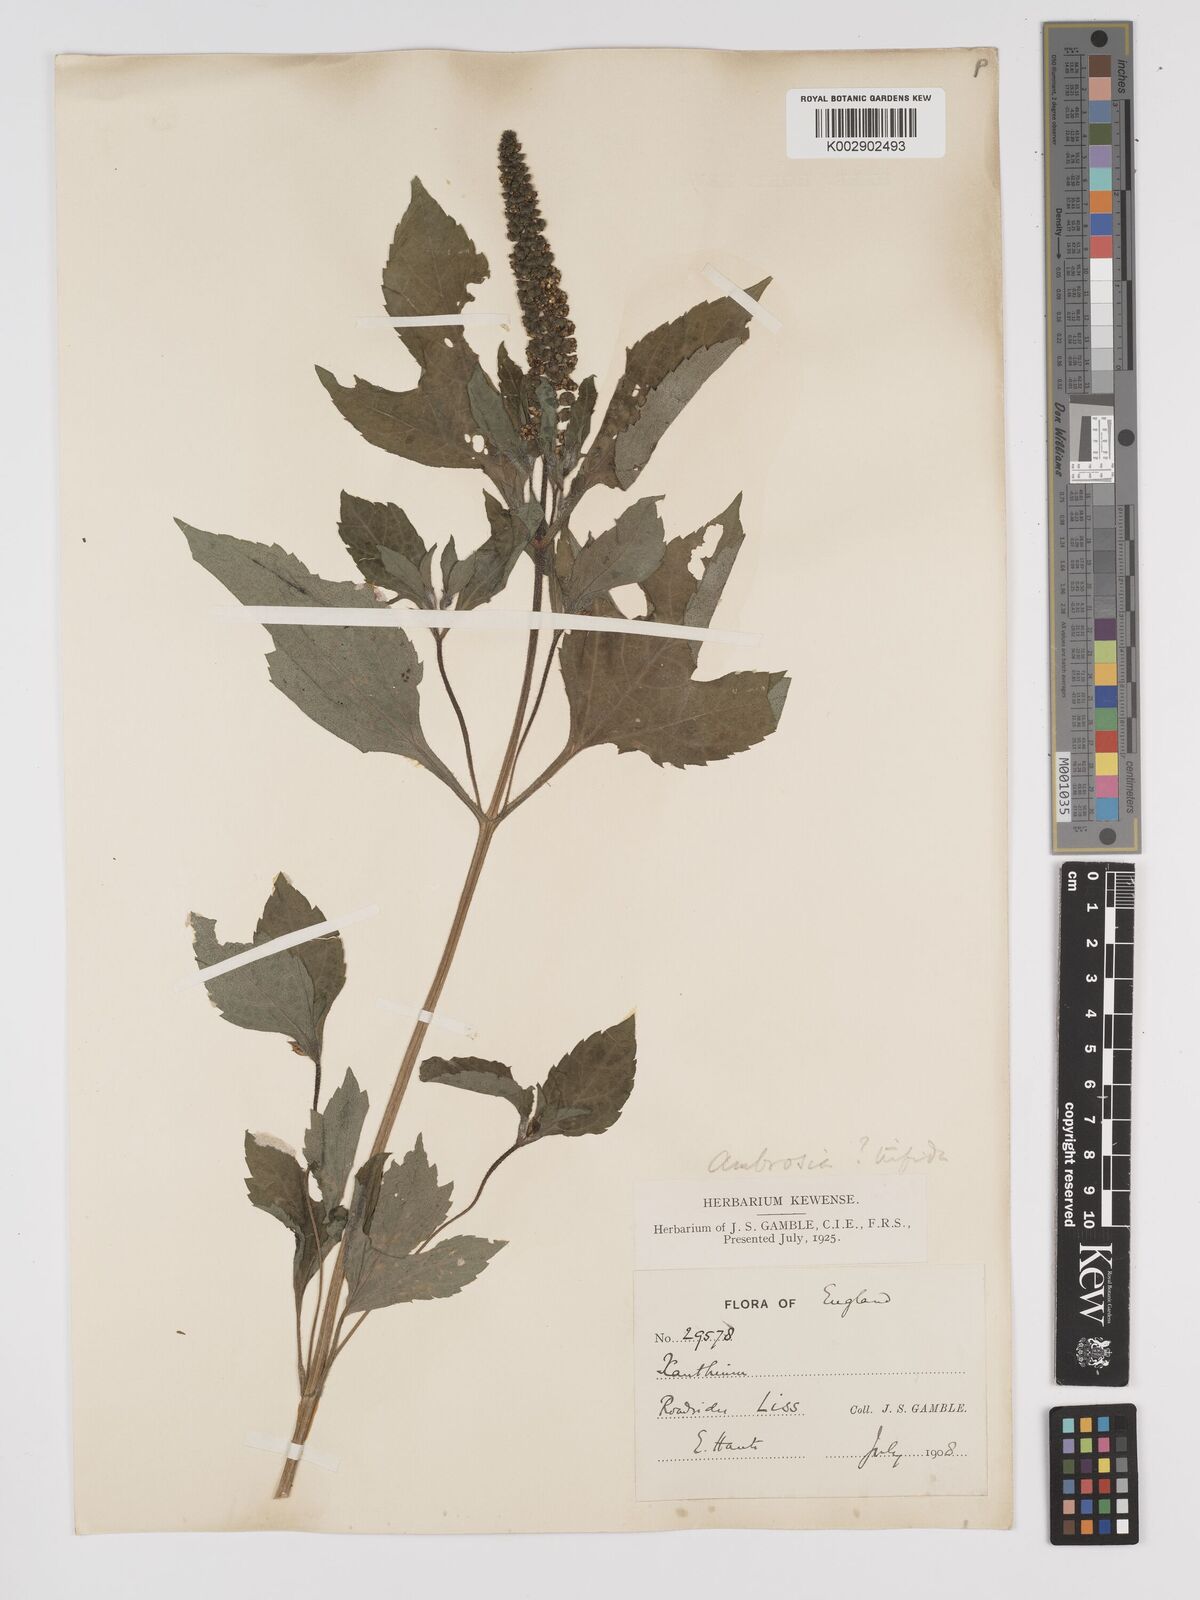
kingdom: Plantae
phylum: Tracheophyta
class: Magnoliopsida
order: Asterales
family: Asteraceae
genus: Ambrosia
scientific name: Ambrosia trifida
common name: Giant ragweed
